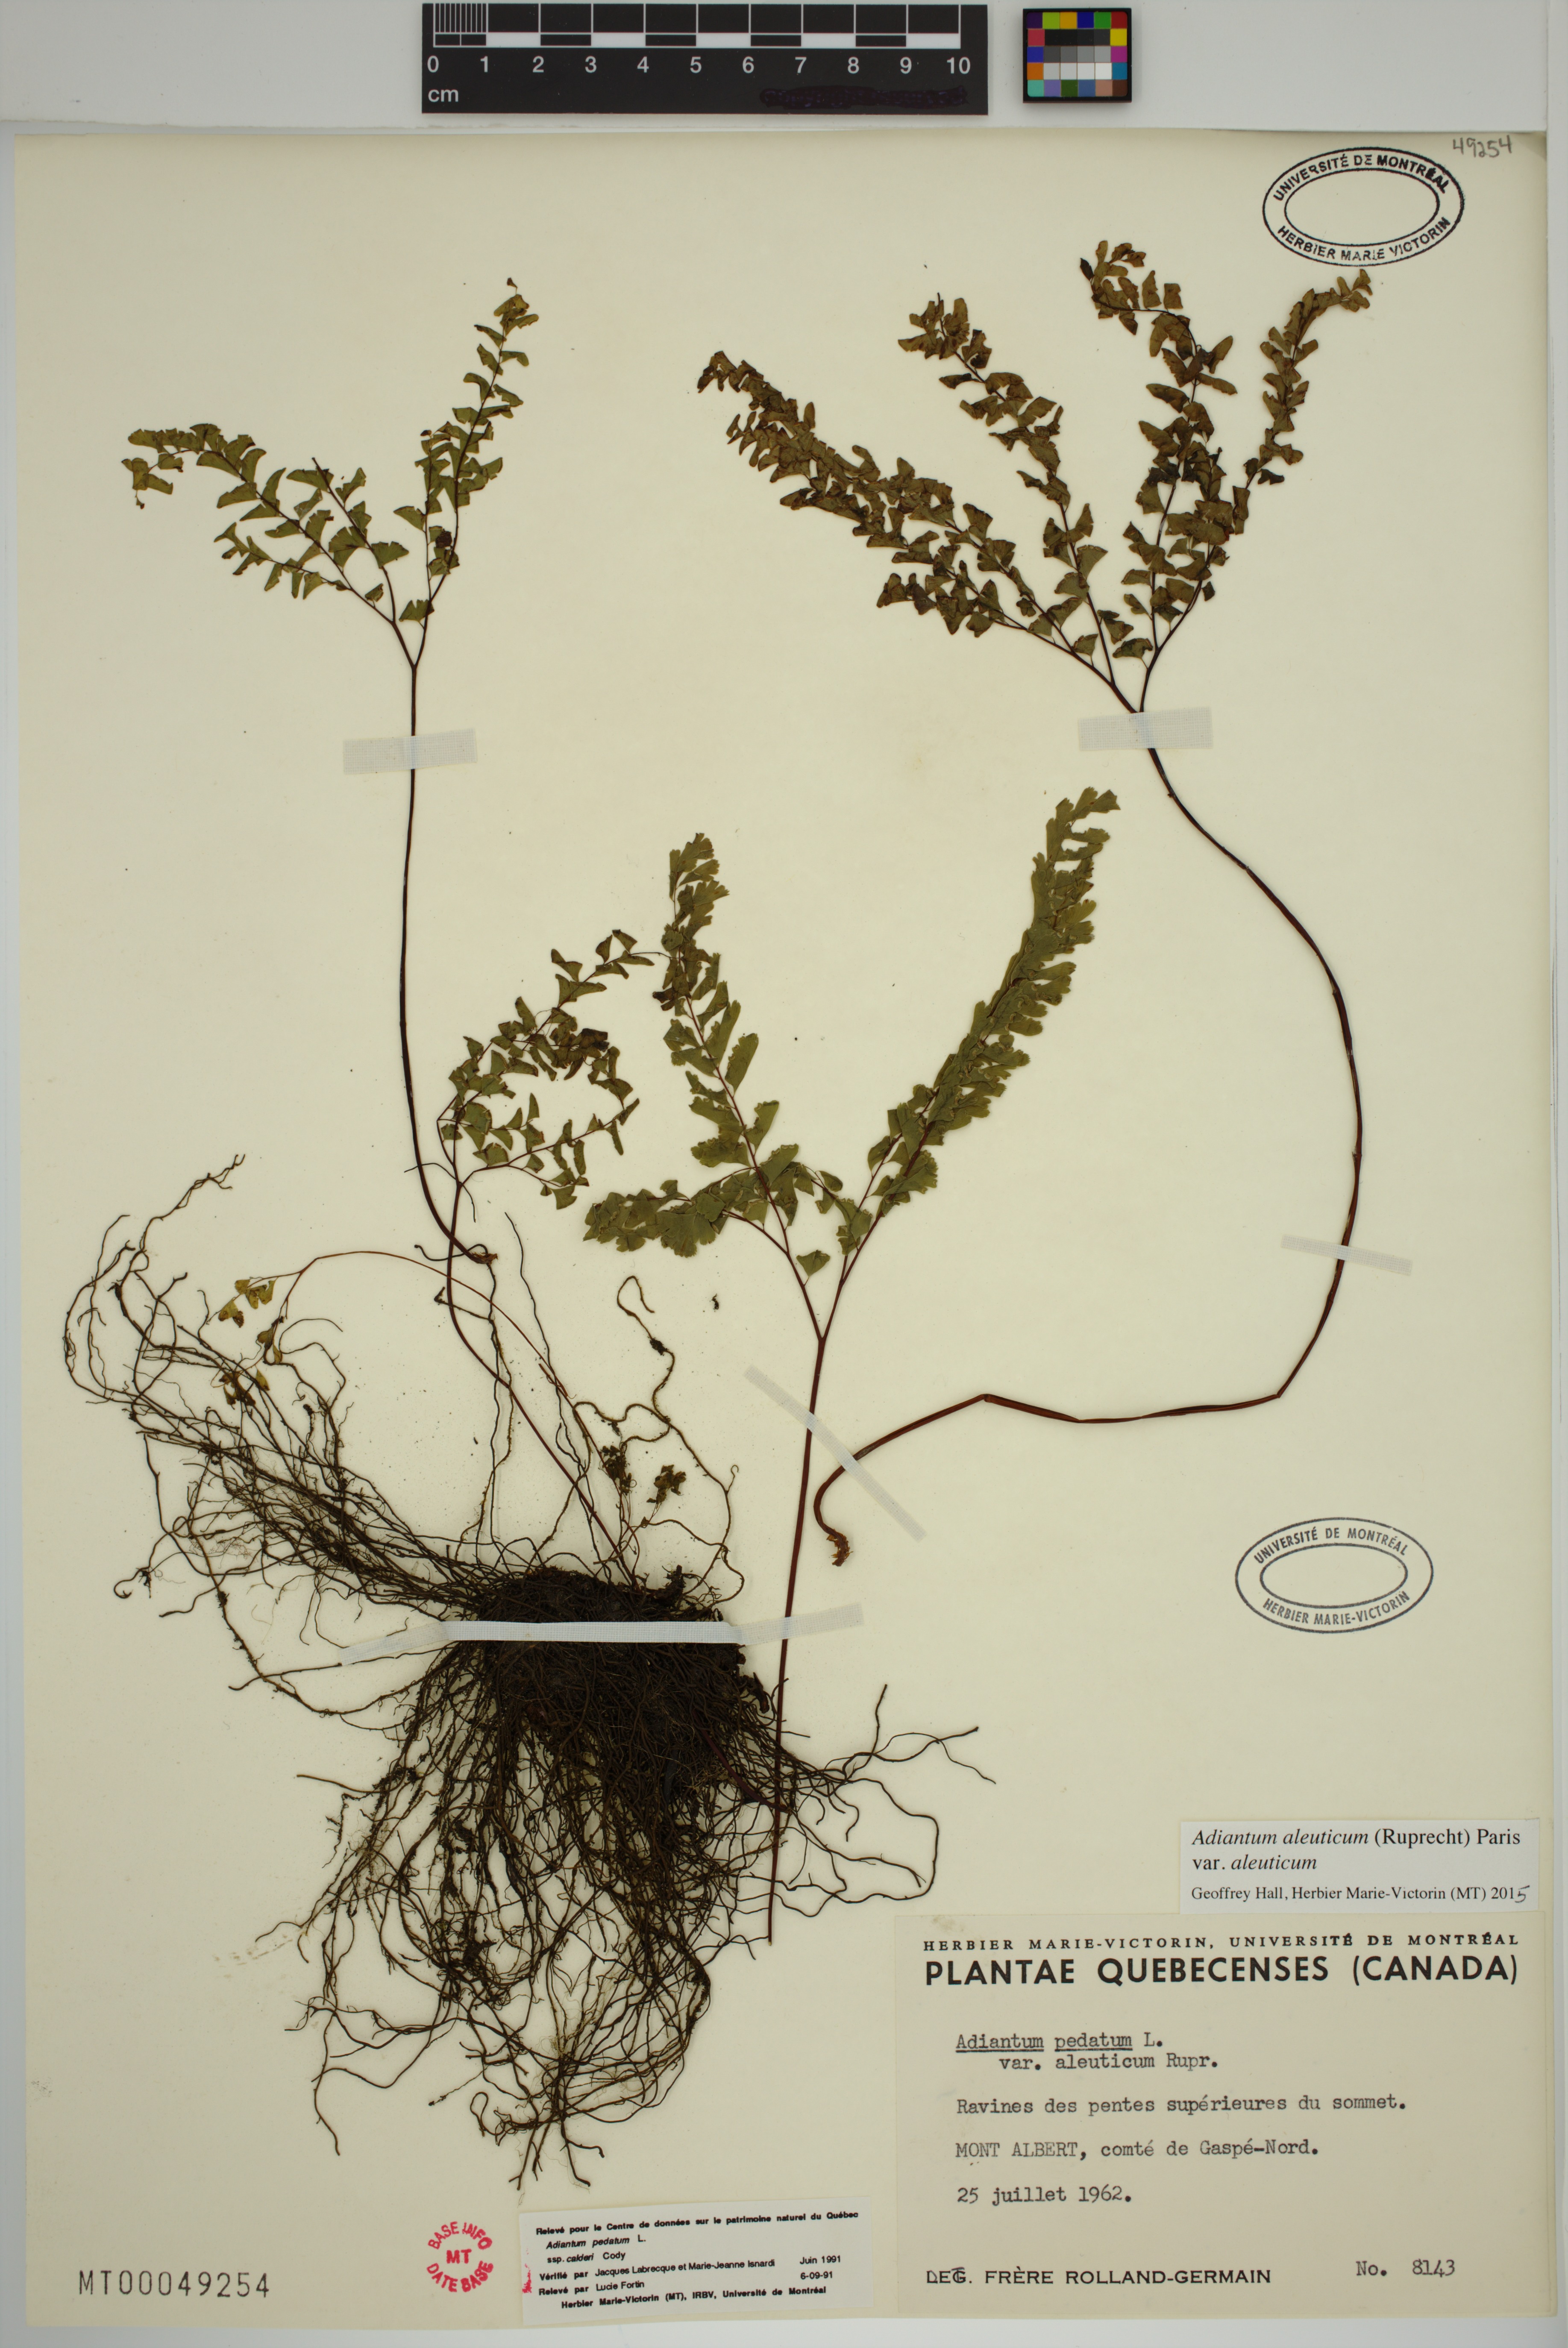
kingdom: Plantae
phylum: Tracheophyta
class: Polypodiopsida
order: Polypodiales
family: Pteridaceae
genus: Adiantum
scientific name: Adiantum aleuticum
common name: Aleutian maidenhair fern
